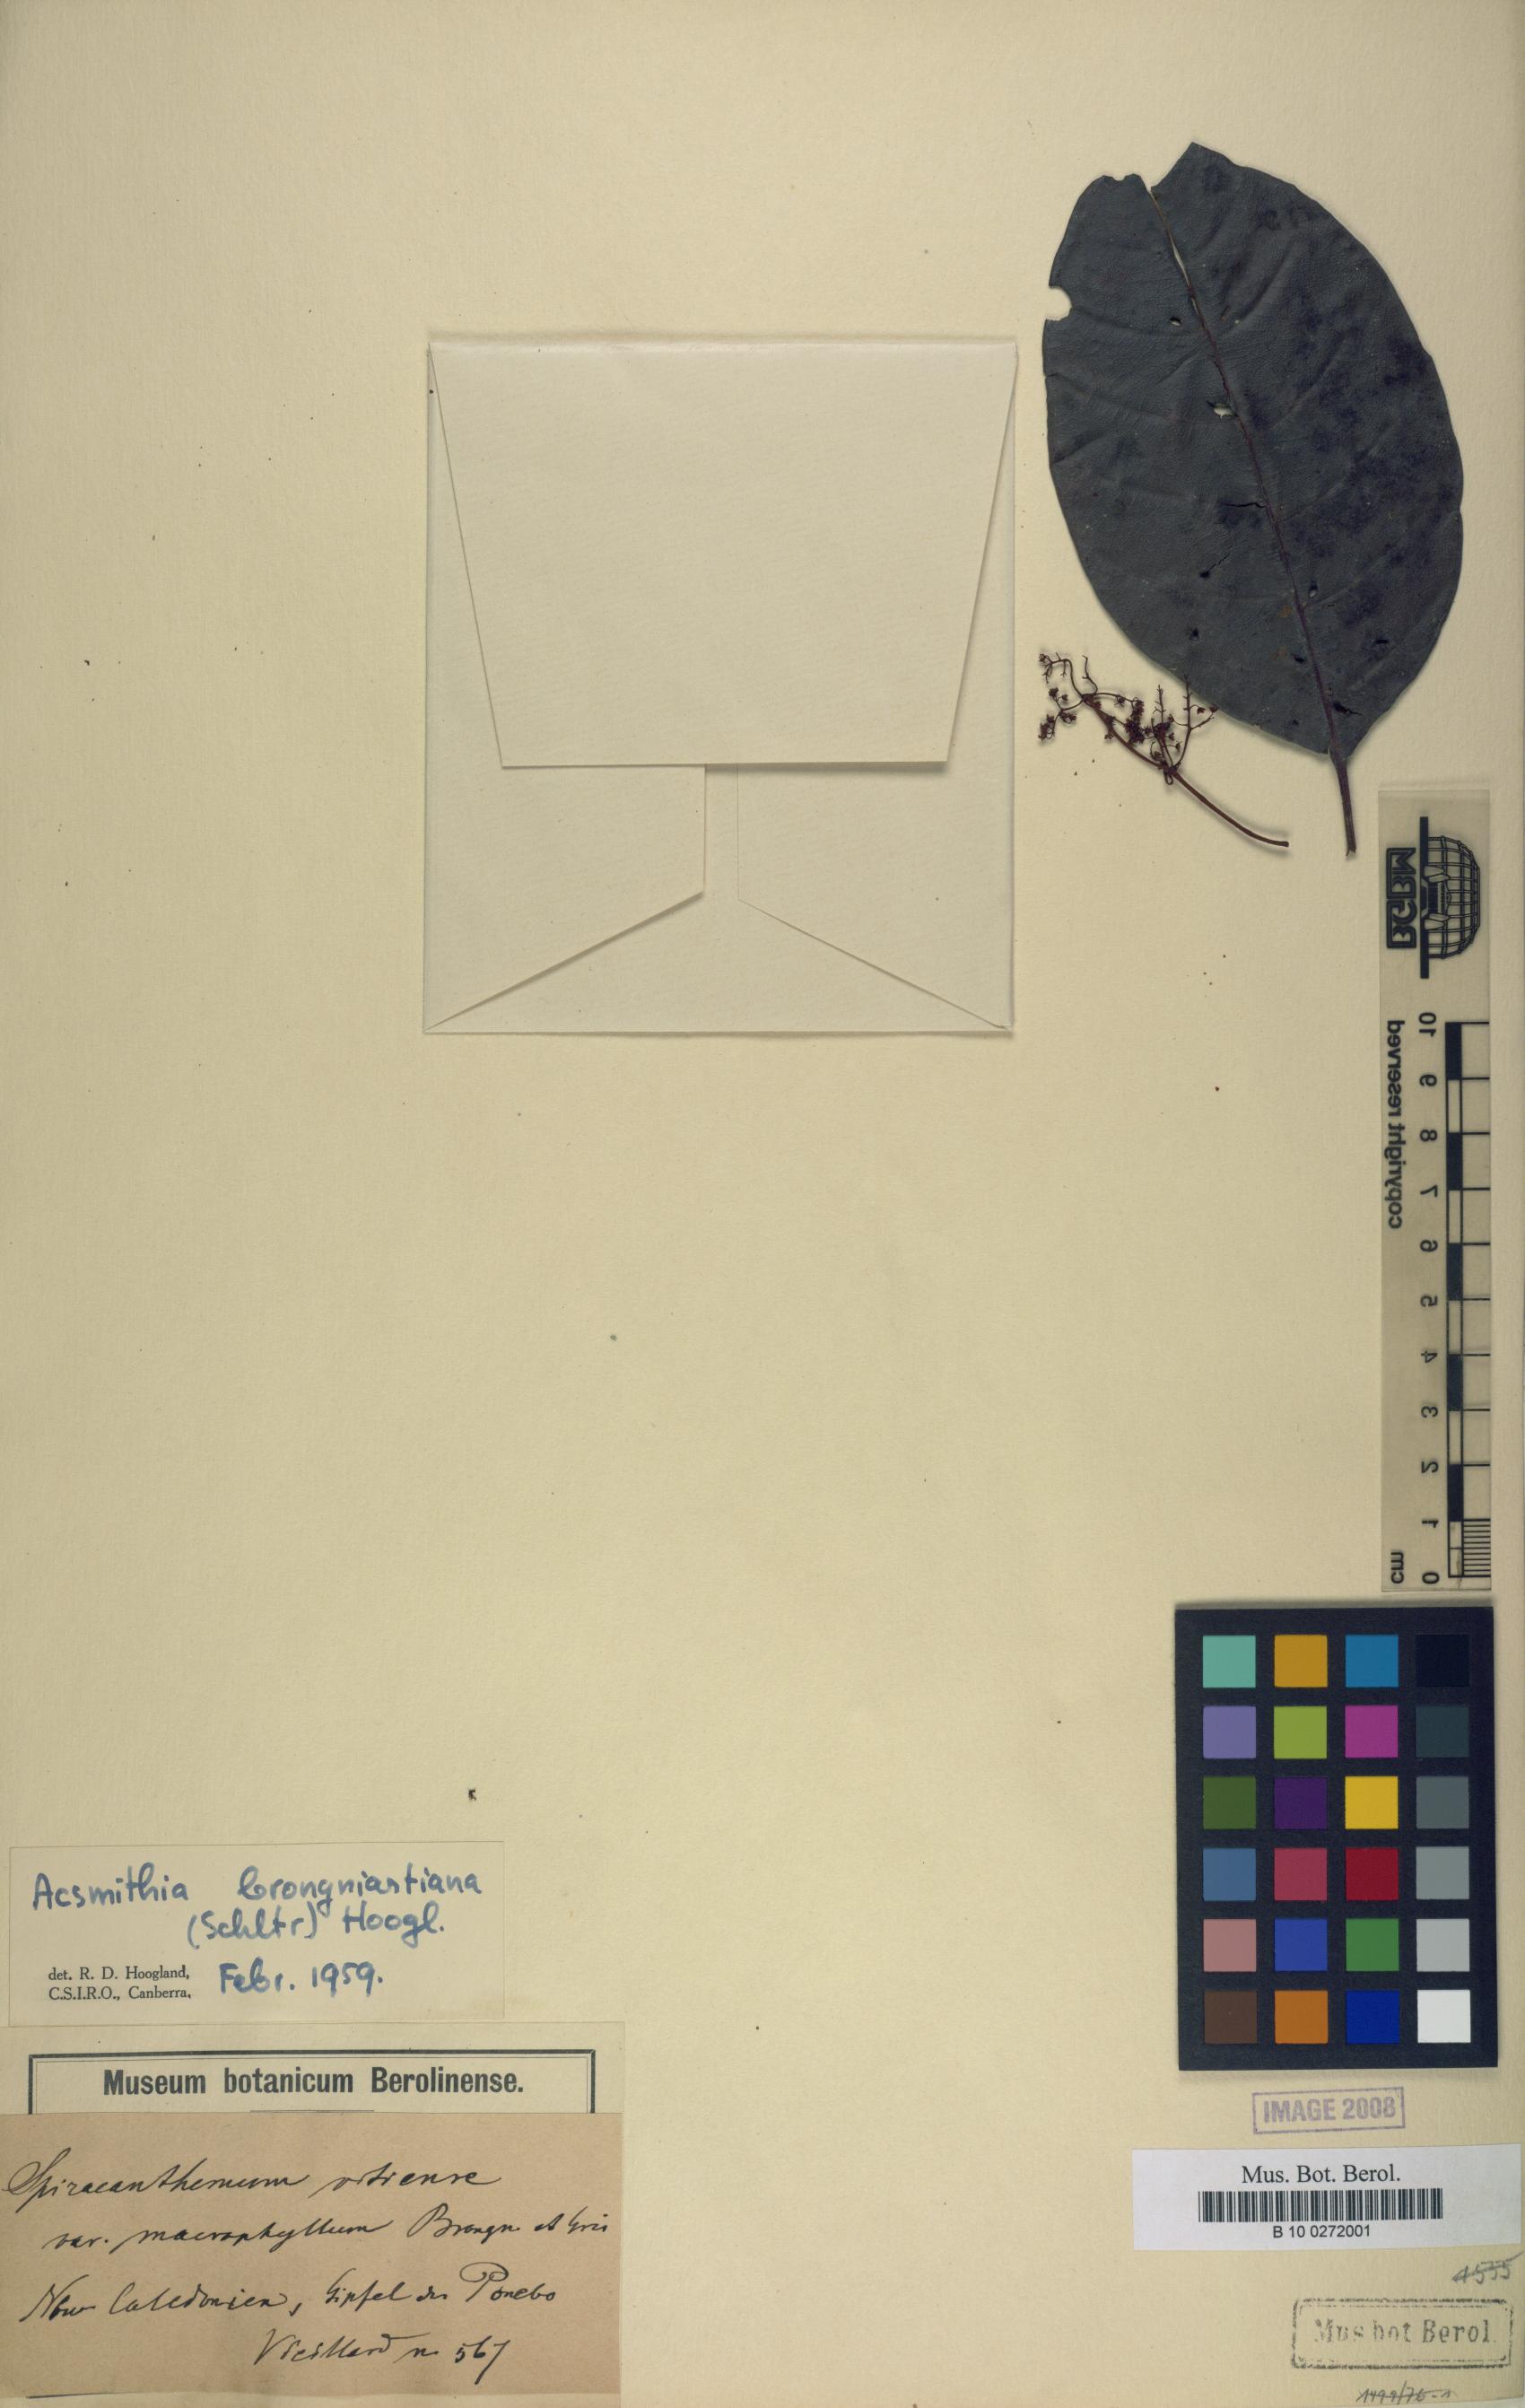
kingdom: Plantae
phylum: Tracheophyta
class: Magnoliopsida
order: Oxalidales
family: Cunoniaceae
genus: Spiraeanthemum
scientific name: Spiraeanthemum brongniartianum
